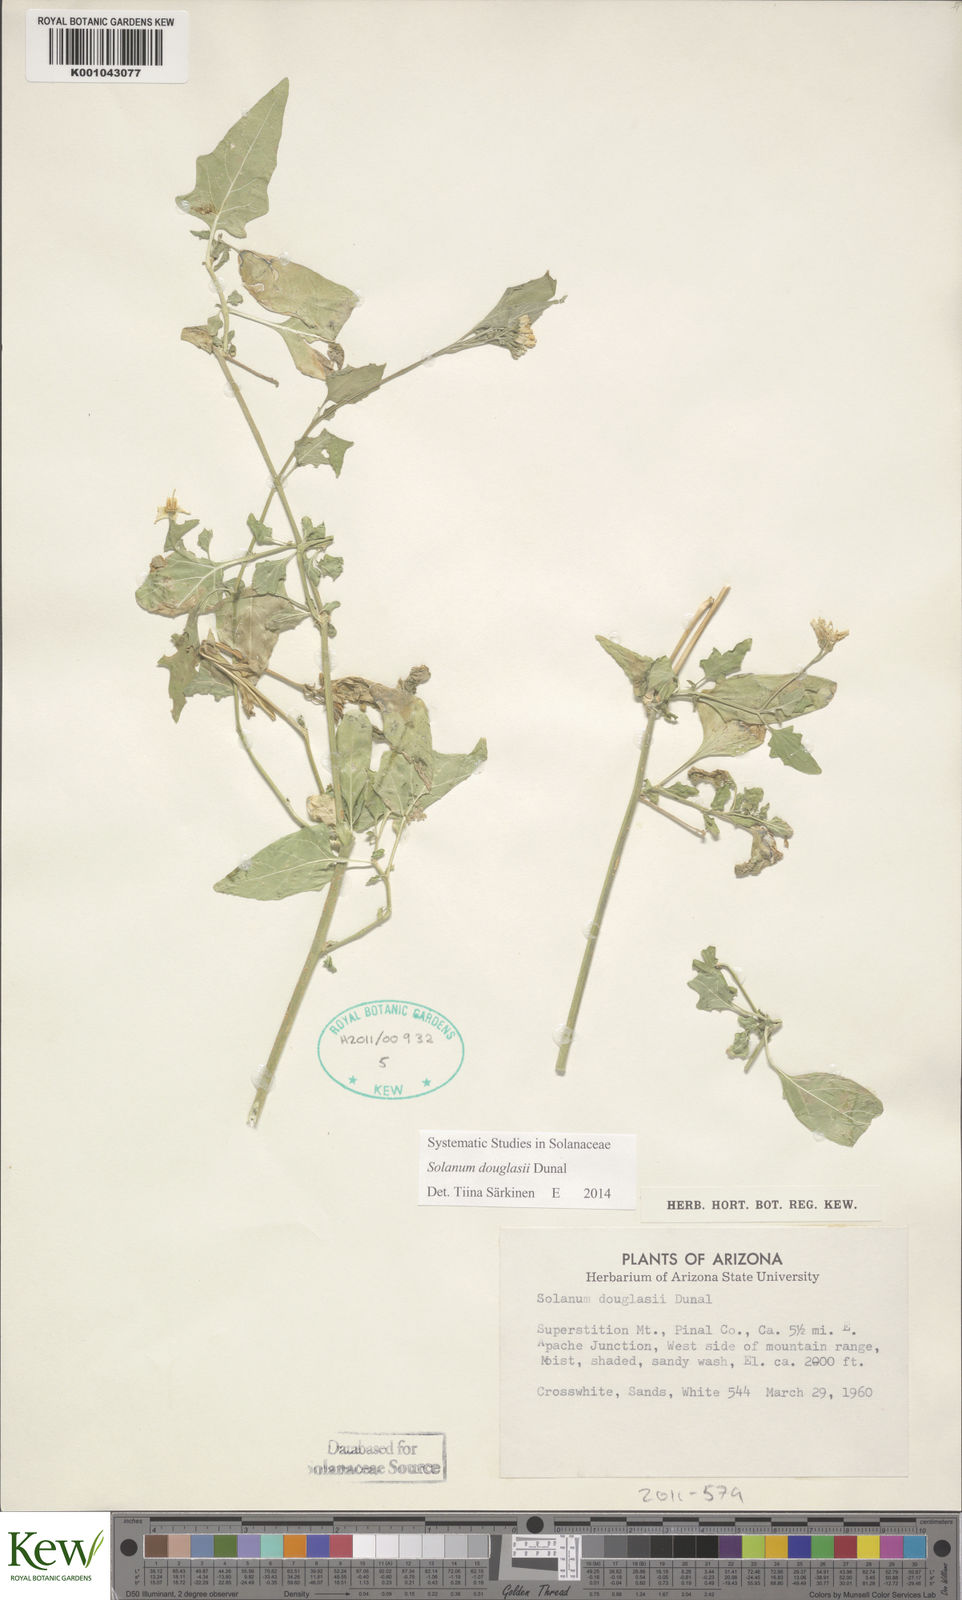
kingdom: Plantae
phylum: Tracheophyta
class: Magnoliopsida
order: Solanales
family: Solanaceae
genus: Solanum
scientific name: Solanum douglasii
